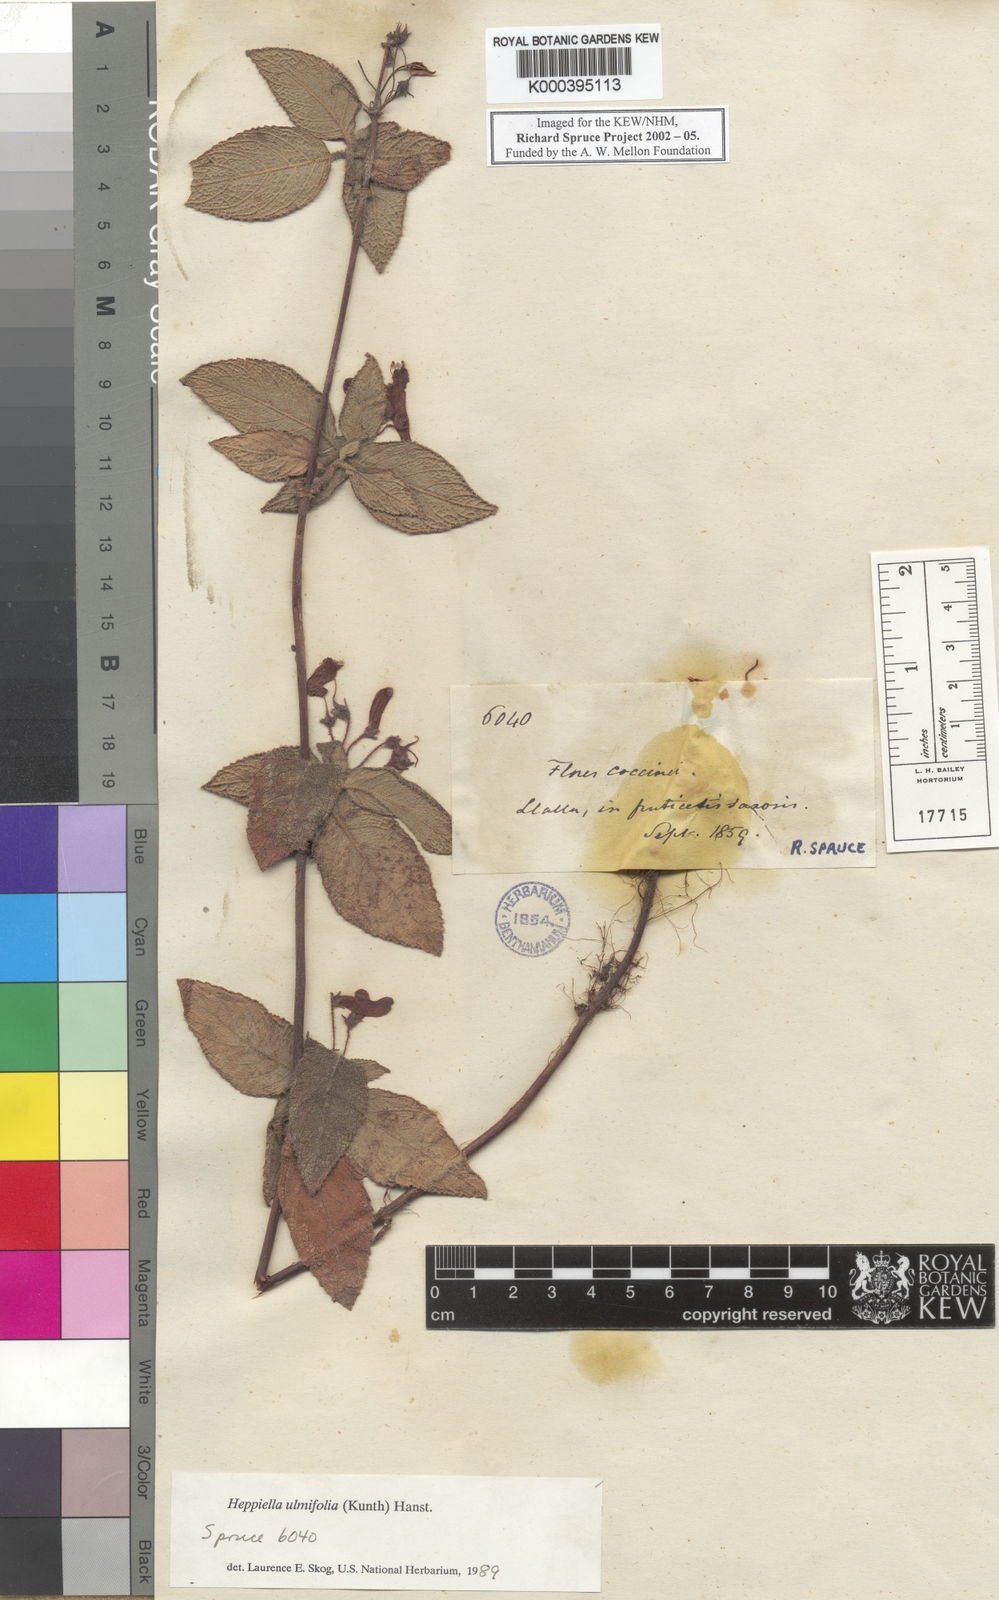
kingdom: Plantae
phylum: Tracheophyta
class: Magnoliopsida
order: Lamiales
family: Gesneriaceae
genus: Heppiella
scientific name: Heppiella ulmifolia
